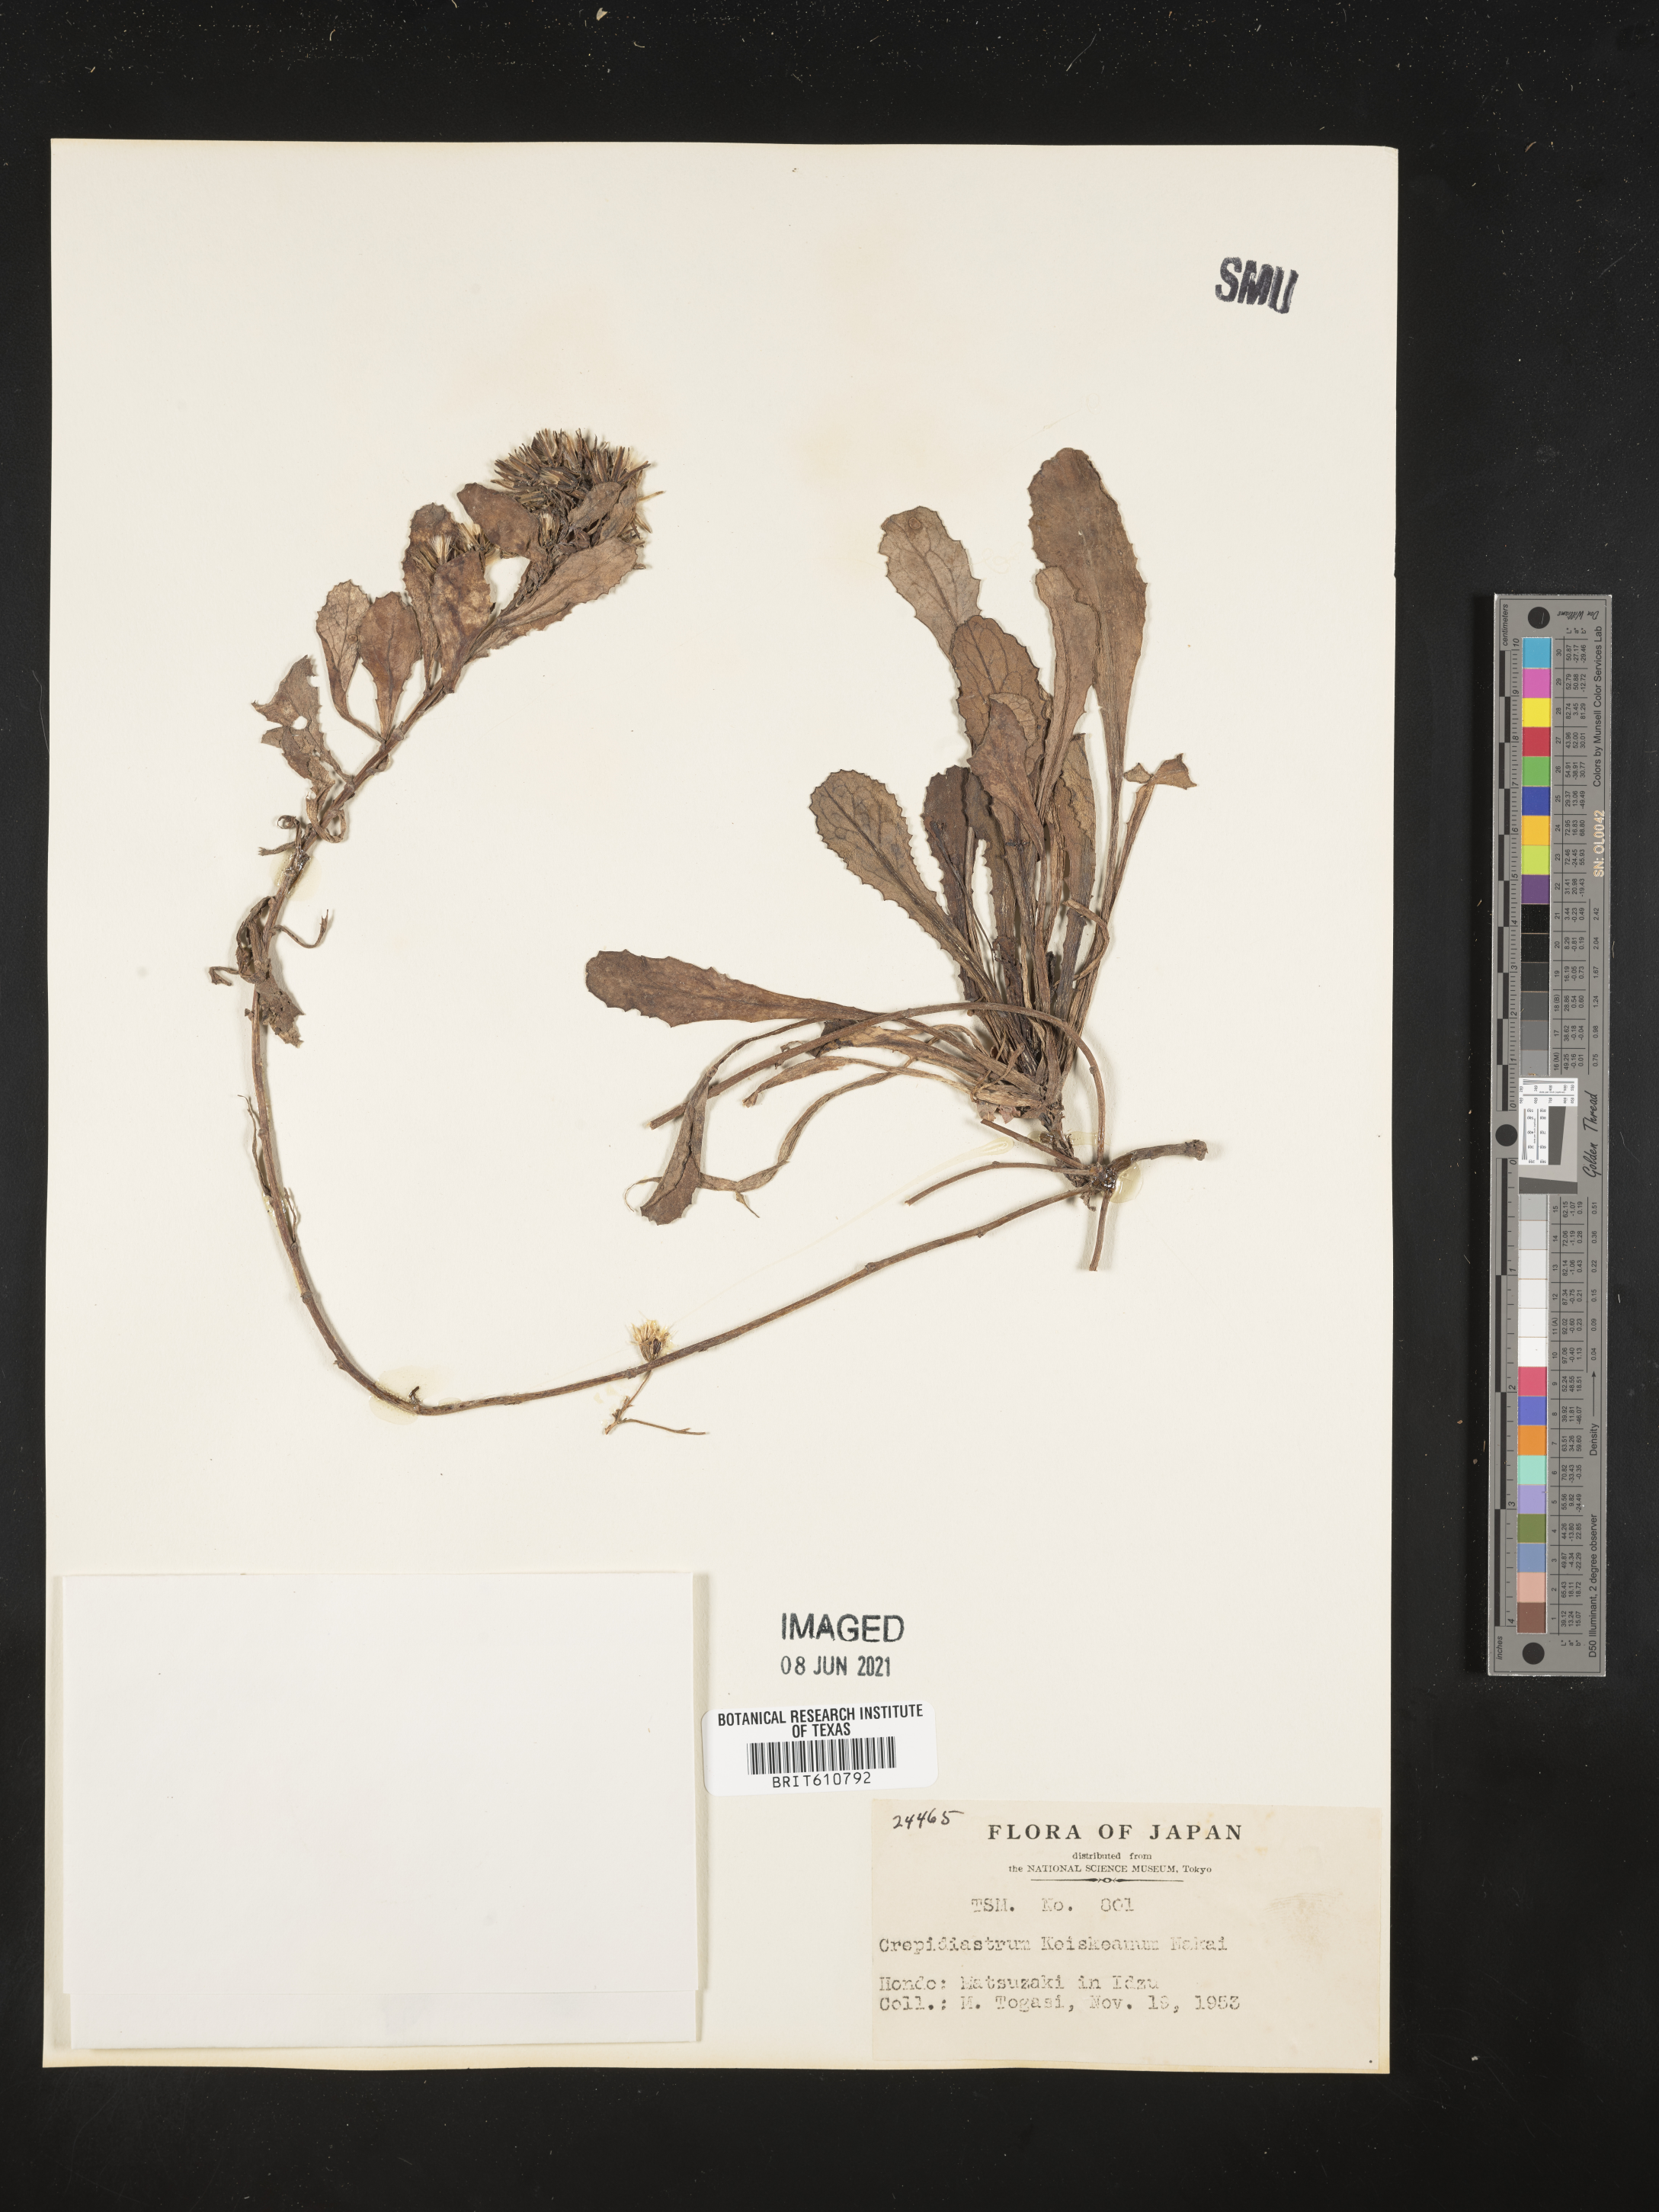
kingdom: Plantae
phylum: Tracheophyta
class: Magnoliopsida
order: Asterales
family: Asteraceae
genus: Crepidiastrum
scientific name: Crepidiastrum keiskeanum
